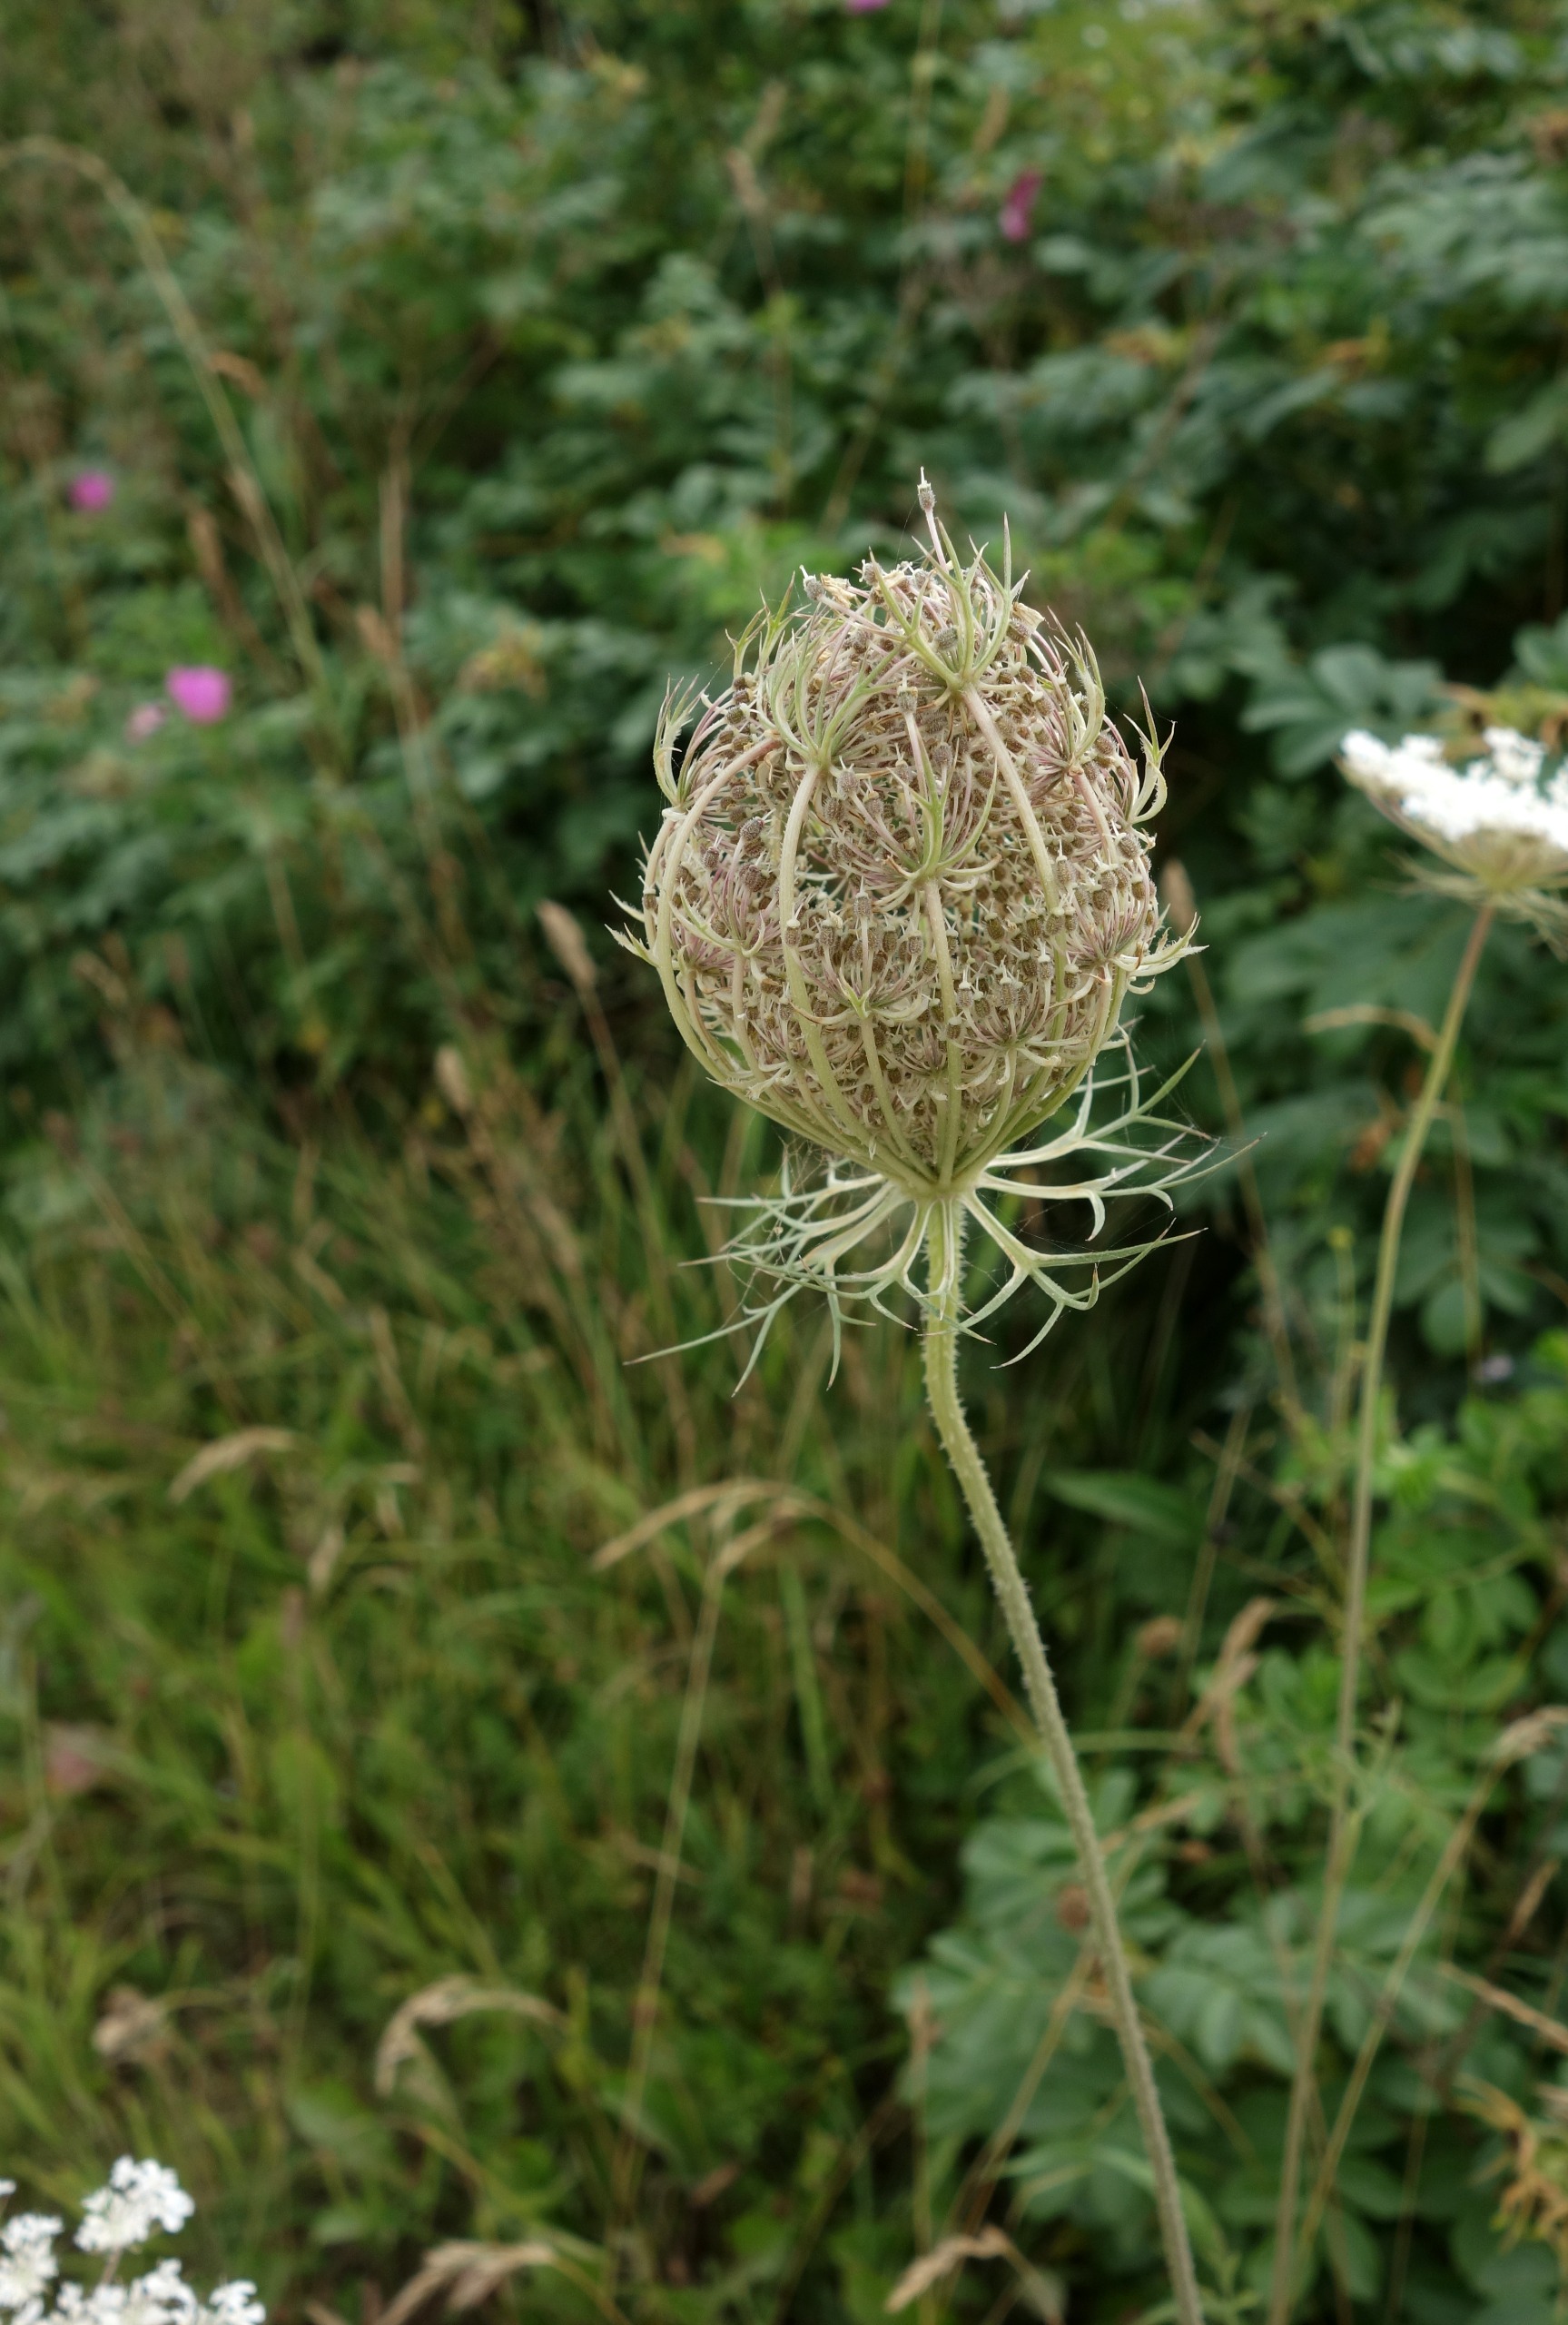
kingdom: Plantae
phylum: Tracheophyta
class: Magnoliopsida
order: Apiales
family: Apiaceae
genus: Daucus
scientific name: Daucus carota
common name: Gulerod
